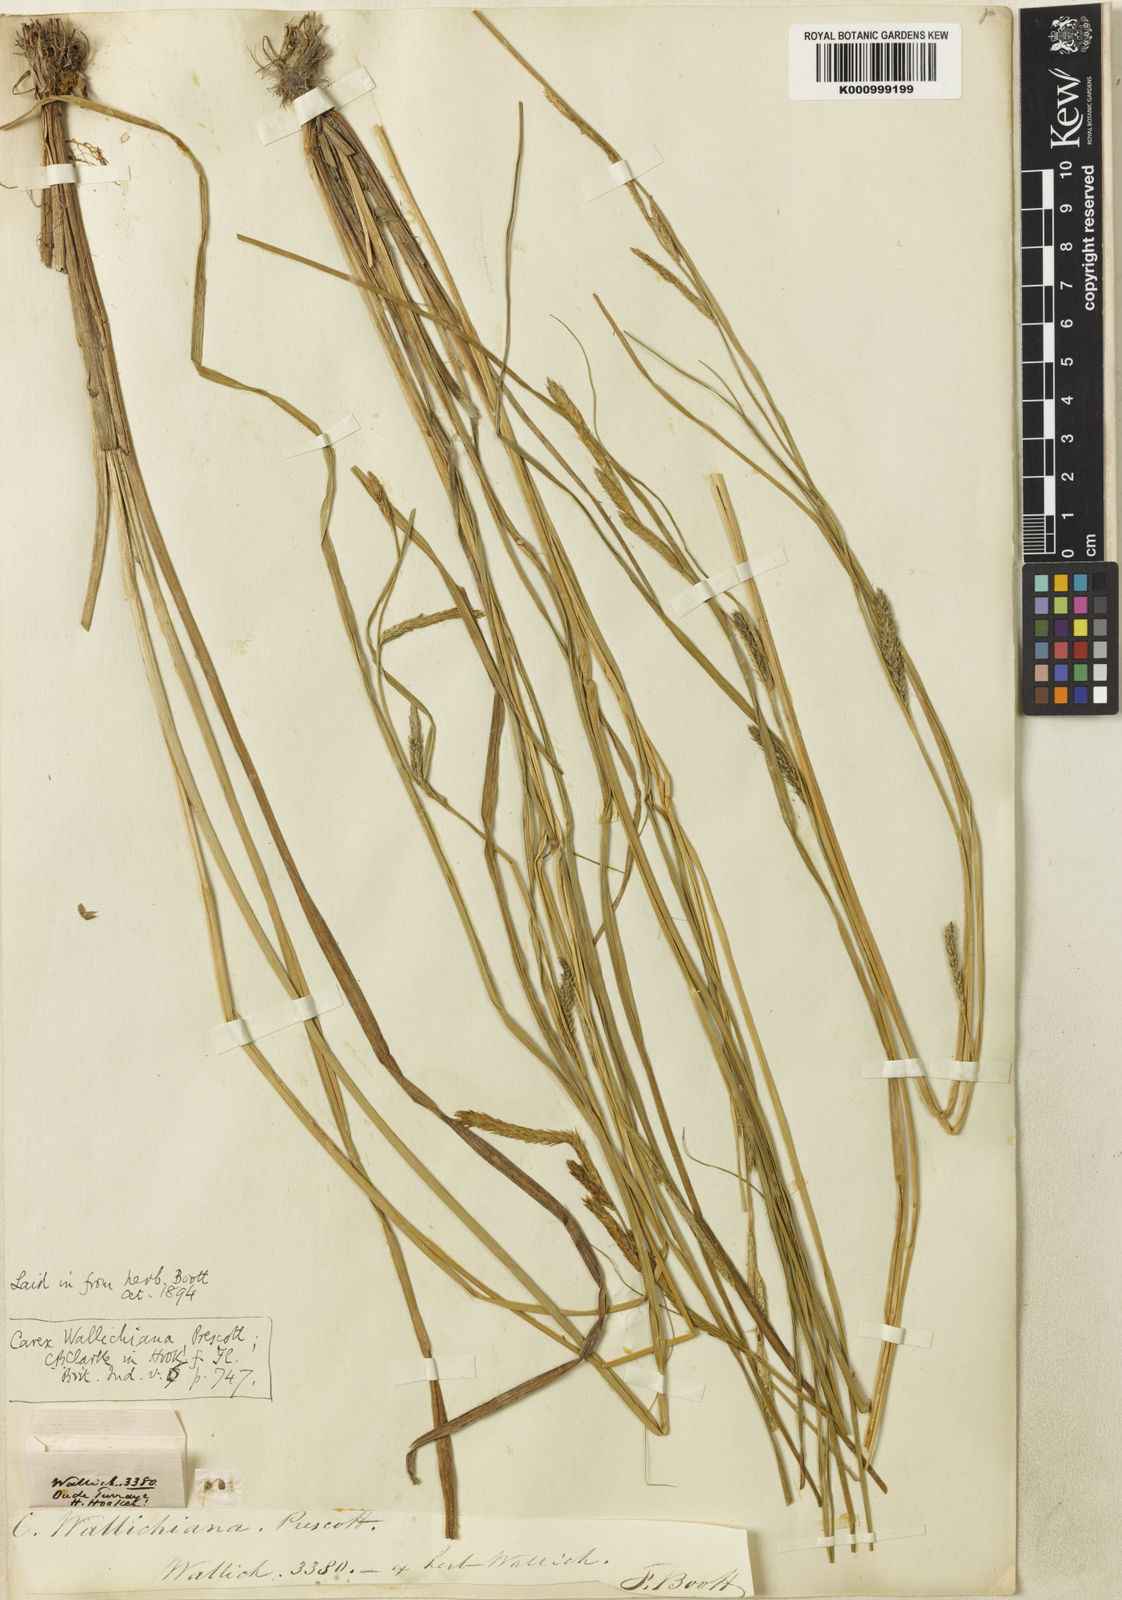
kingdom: Plantae
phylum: Tracheophyta
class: Liliopsida
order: Poales
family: Cyperaceae
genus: Carex
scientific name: Carex
